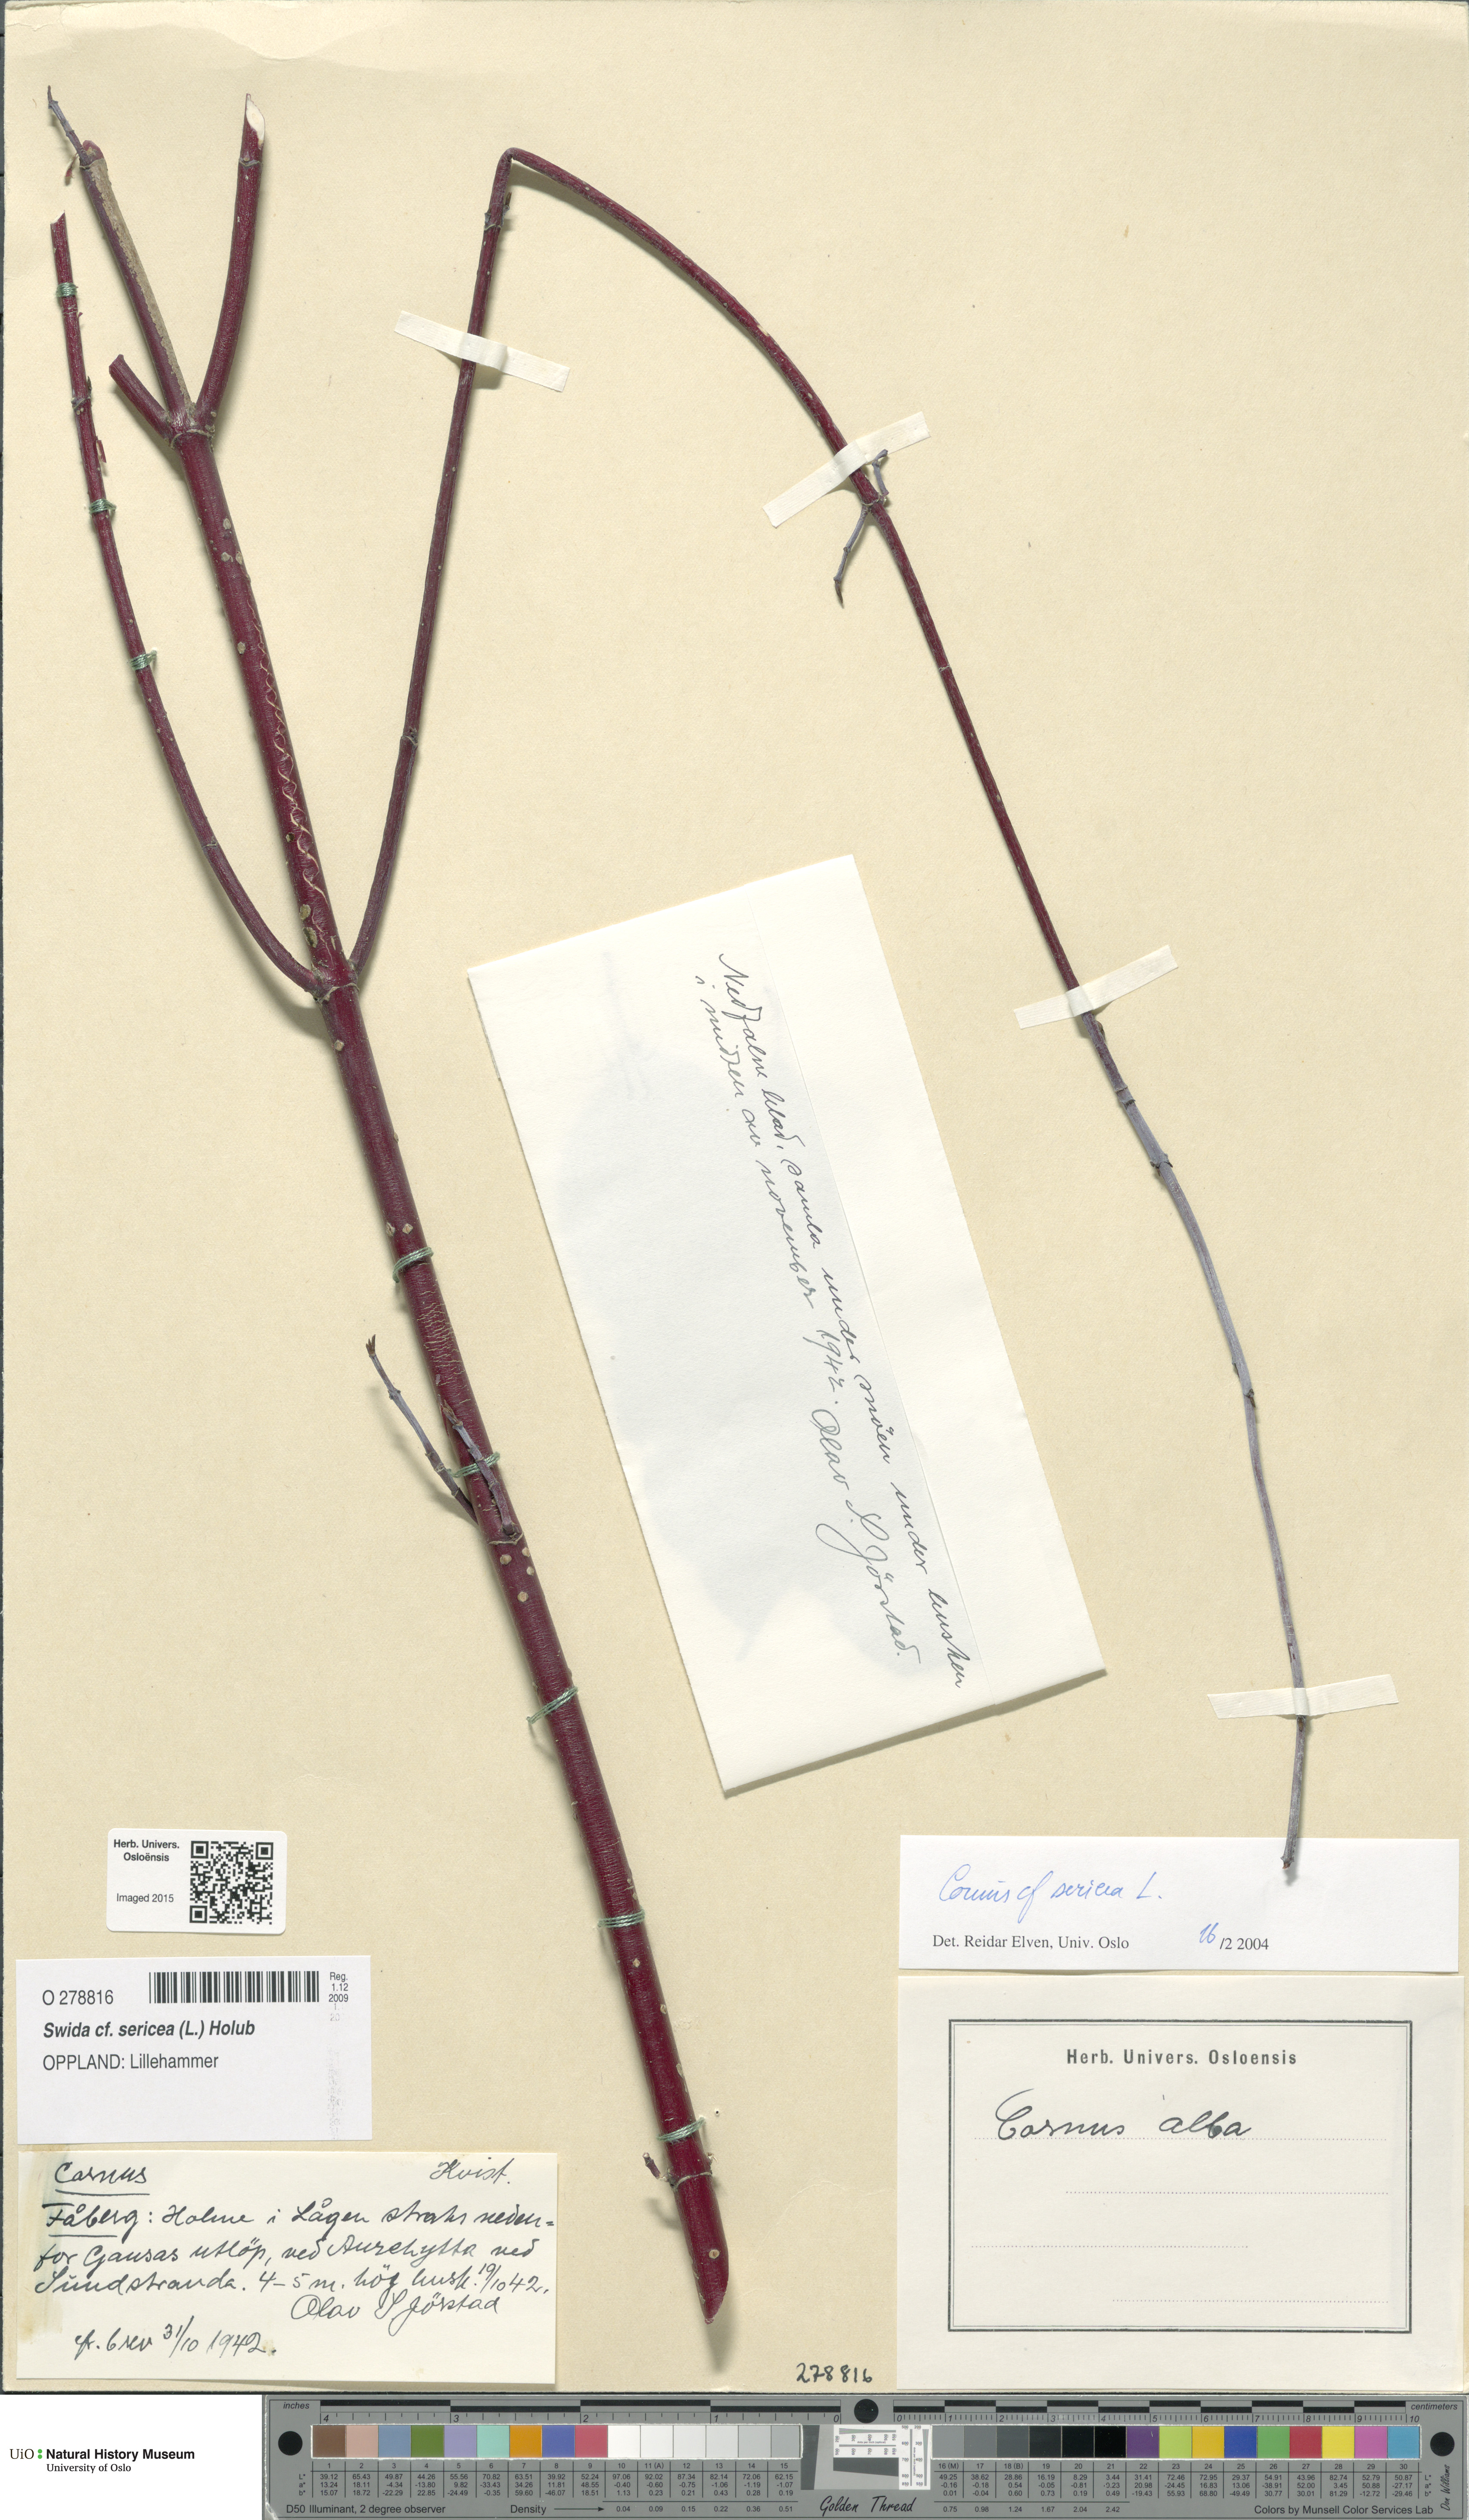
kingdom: Plantae
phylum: Tracheophyta
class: Magnoliopsida
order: Cornales
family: Cornaceae
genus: Cornus
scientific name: Cornus sericea
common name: Red-osier dogwood
